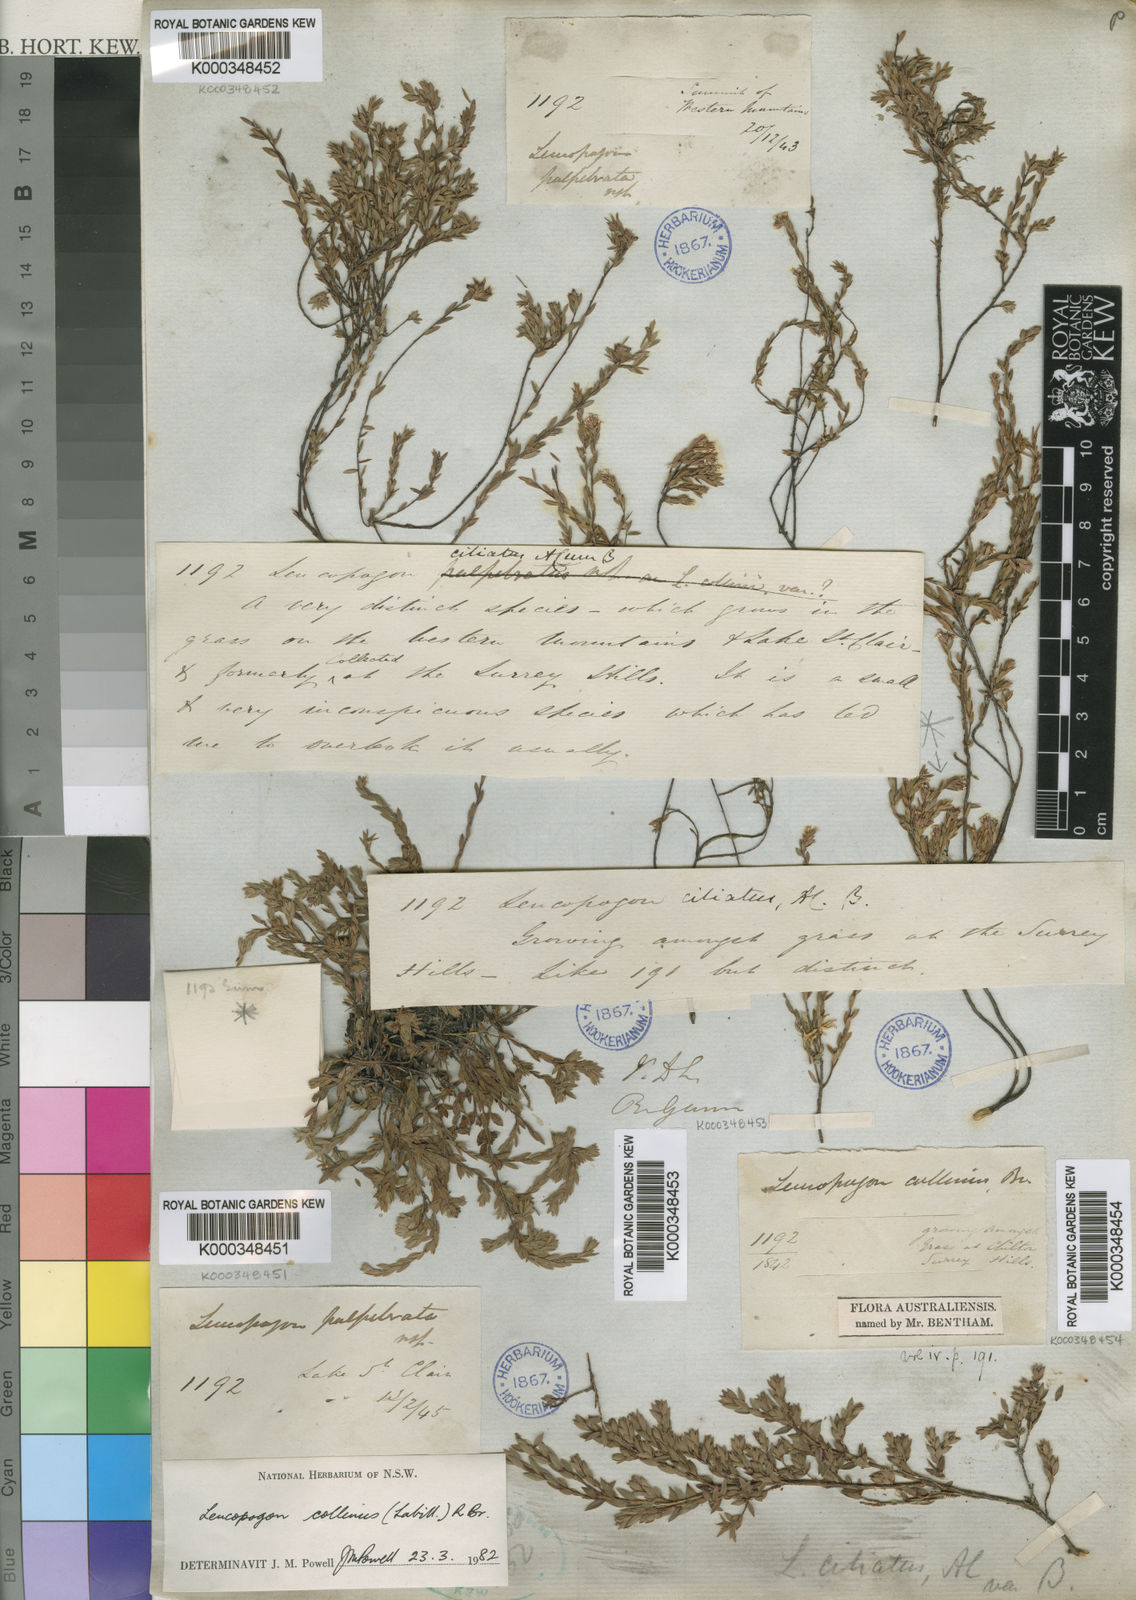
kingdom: Plantae
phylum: Tracheophyta
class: Magnoliopsida
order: Ericales
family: Ericaceae
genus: Leucopogon
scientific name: Leucopogon collinus
